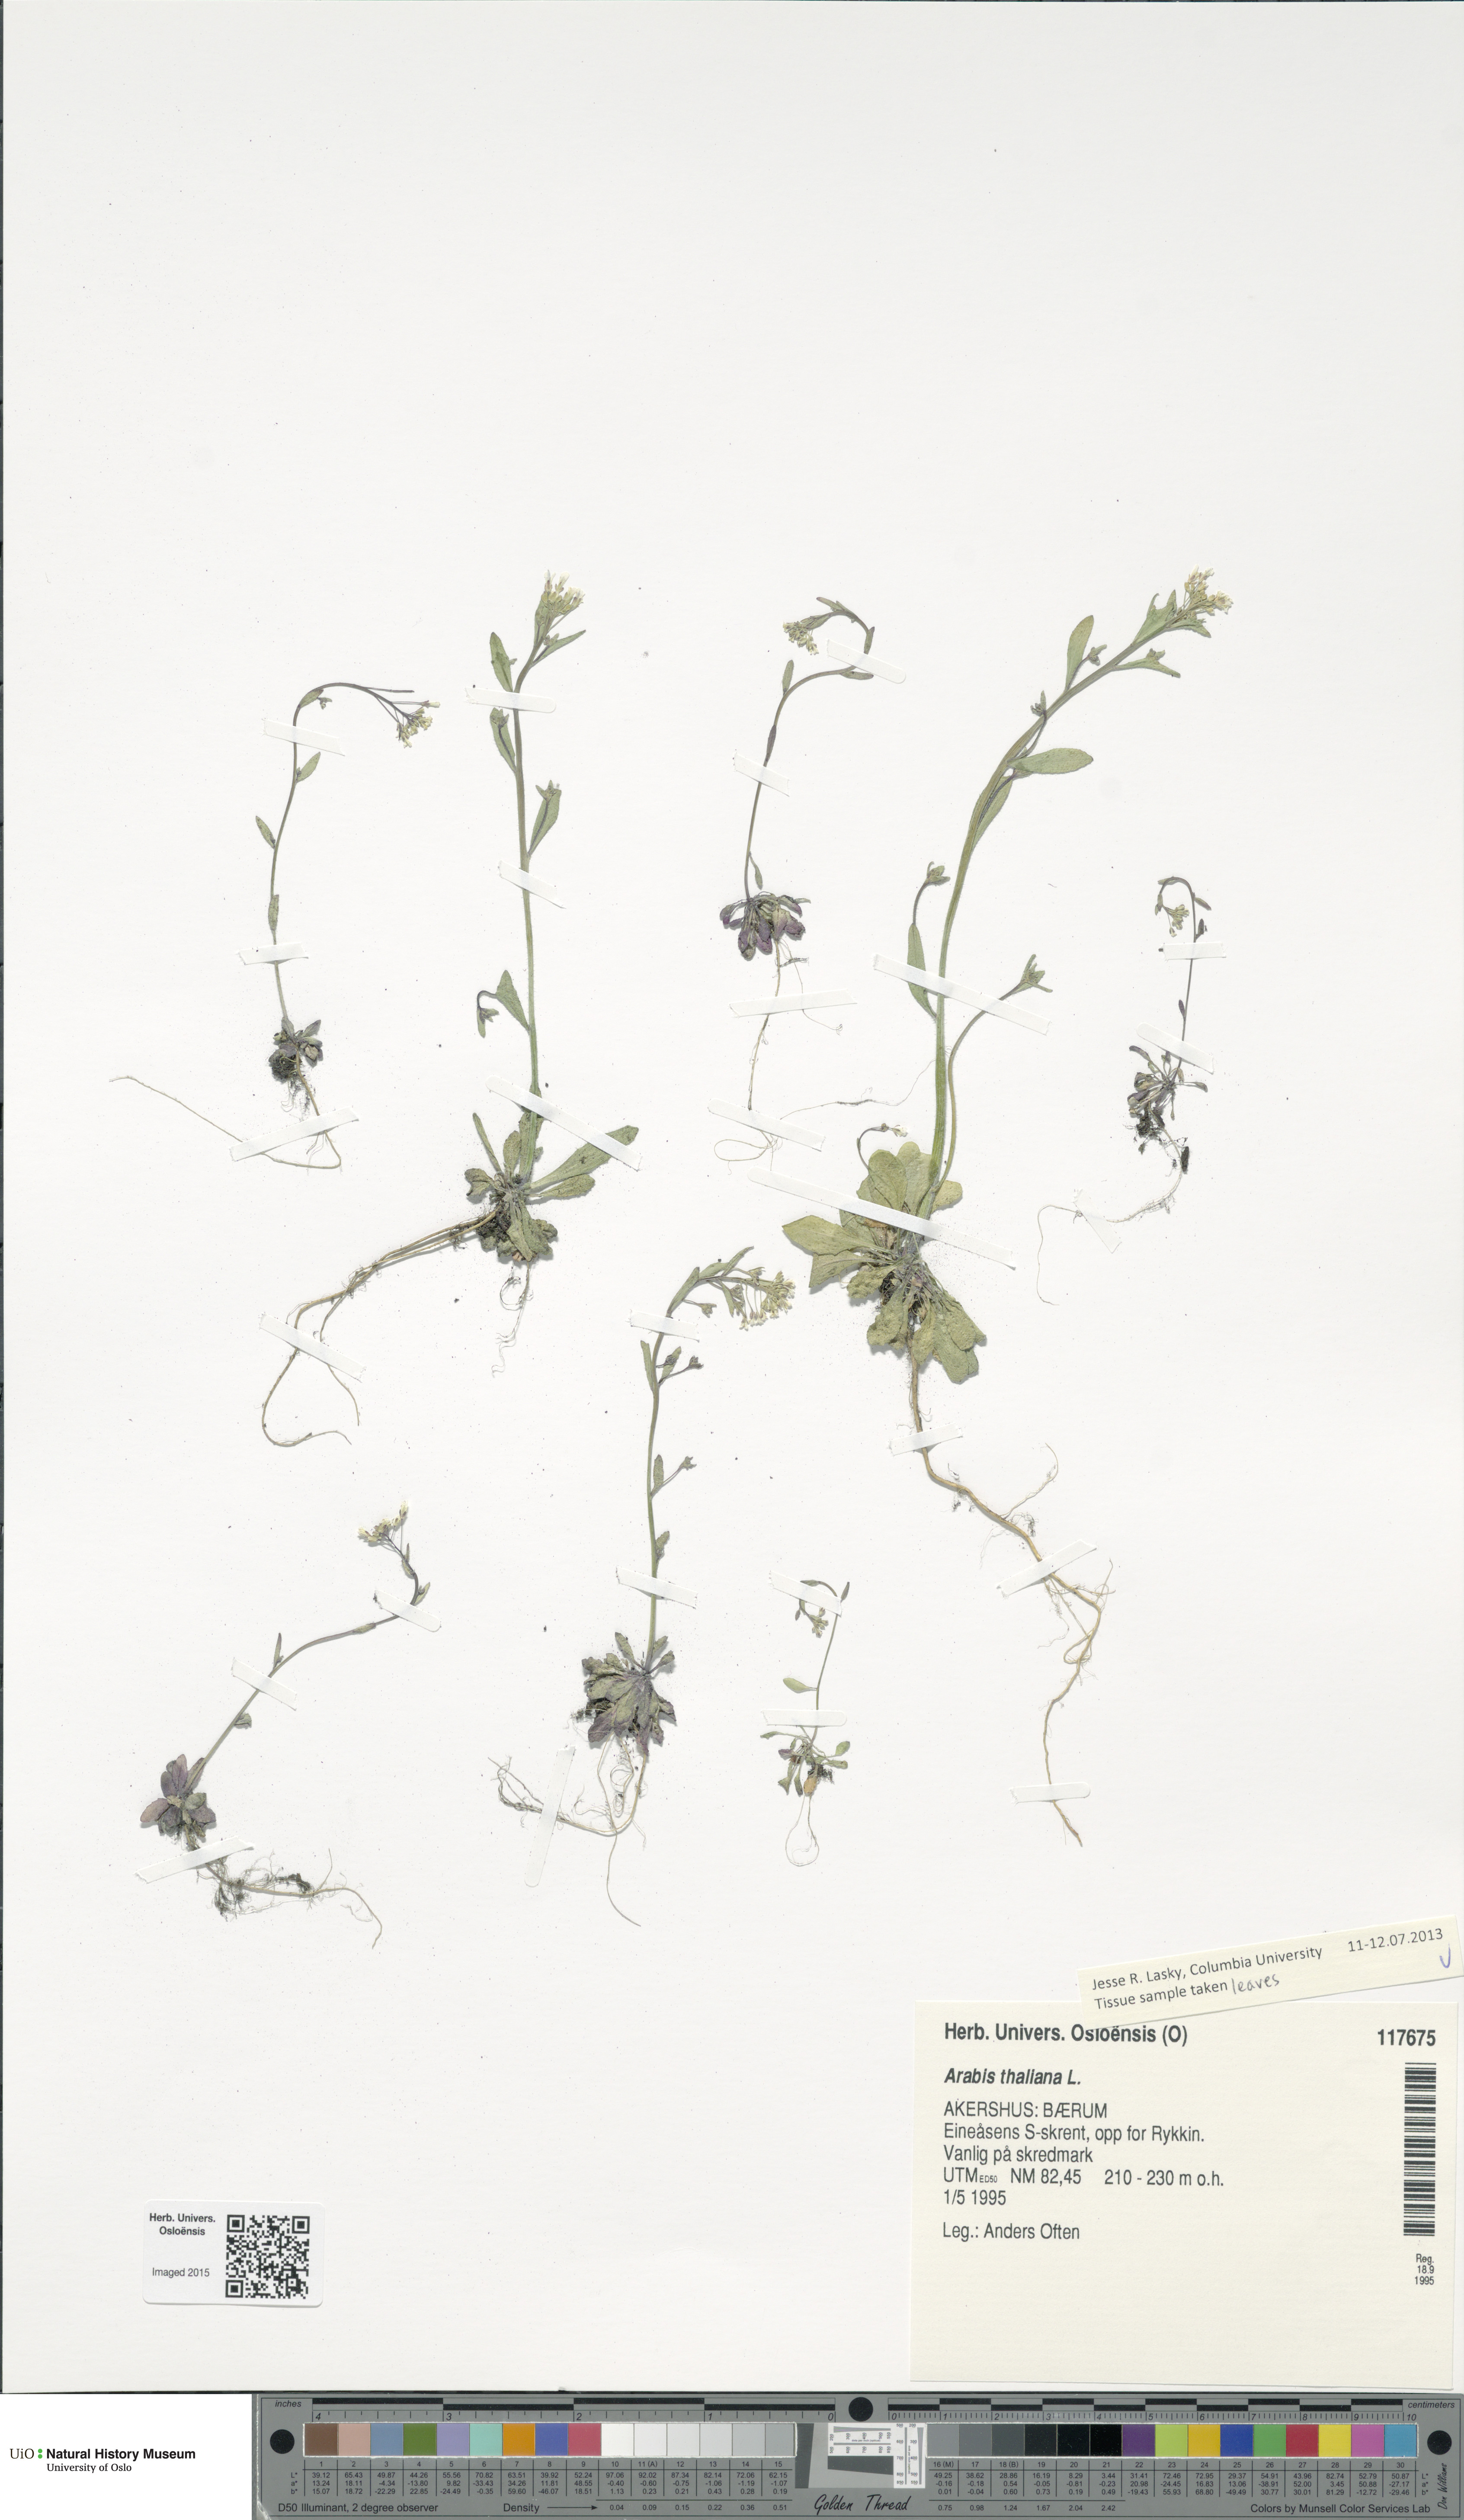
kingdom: Plantae
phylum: Tracheophyta
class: Magnoliopsida
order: Brassicales
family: Brassicaceae
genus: Arabidopsis
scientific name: Arabidopsis thaliana
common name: Thale cress
